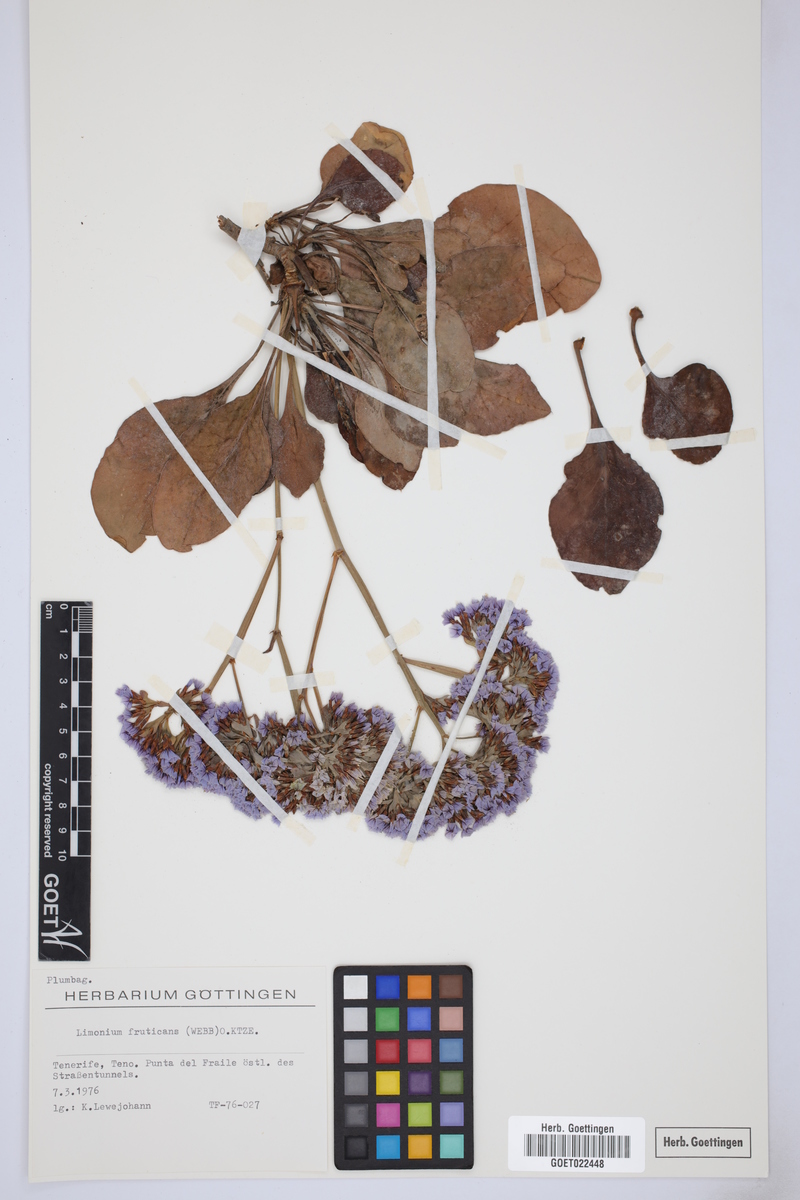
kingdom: Plantae
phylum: Tracheophyta
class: Magnoliopsida
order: Caryophyllales
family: Plumbaginaceae
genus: Limonium
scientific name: Limonium frutescens
